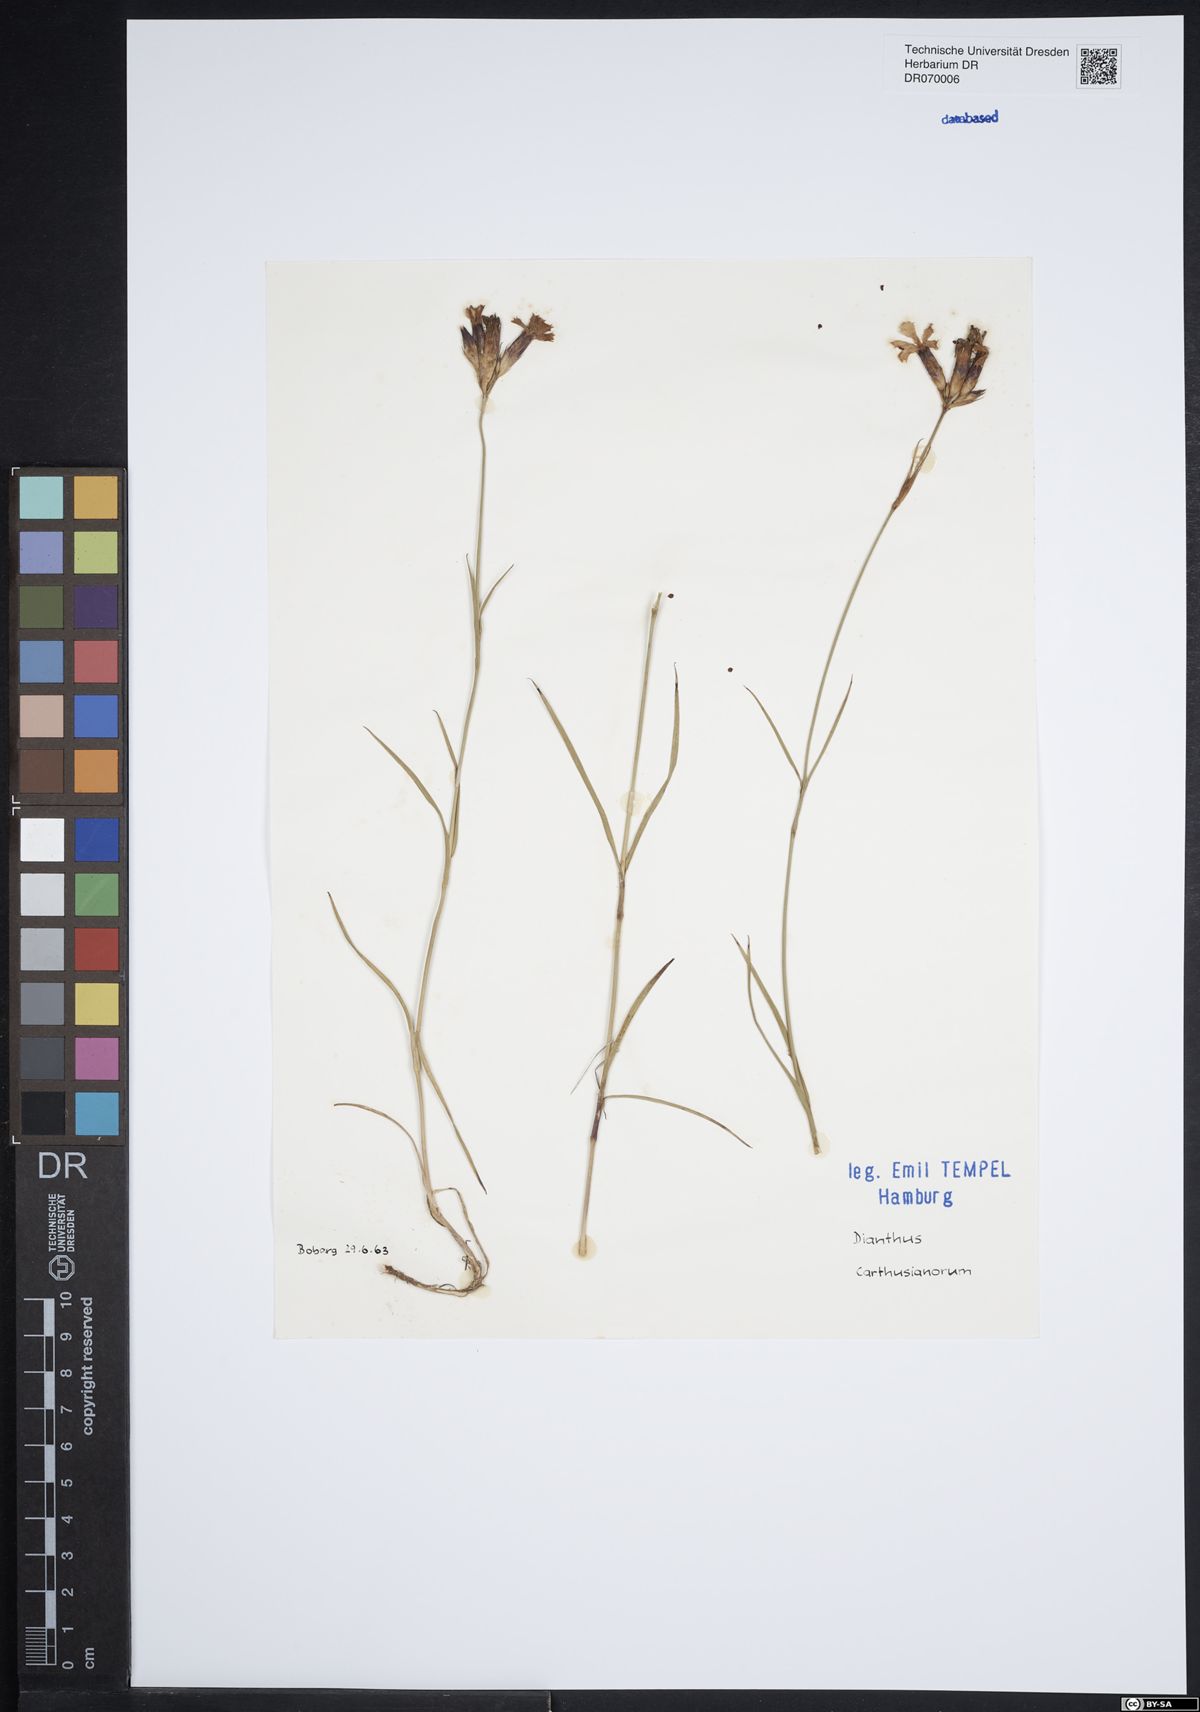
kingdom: Plantae
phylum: Tracheophyta
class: Magnoliopsida
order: Caryophyllales
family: Caryophyllaceae
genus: Dianthus
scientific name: Dianthus carthusianorum
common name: Carthusian pink
